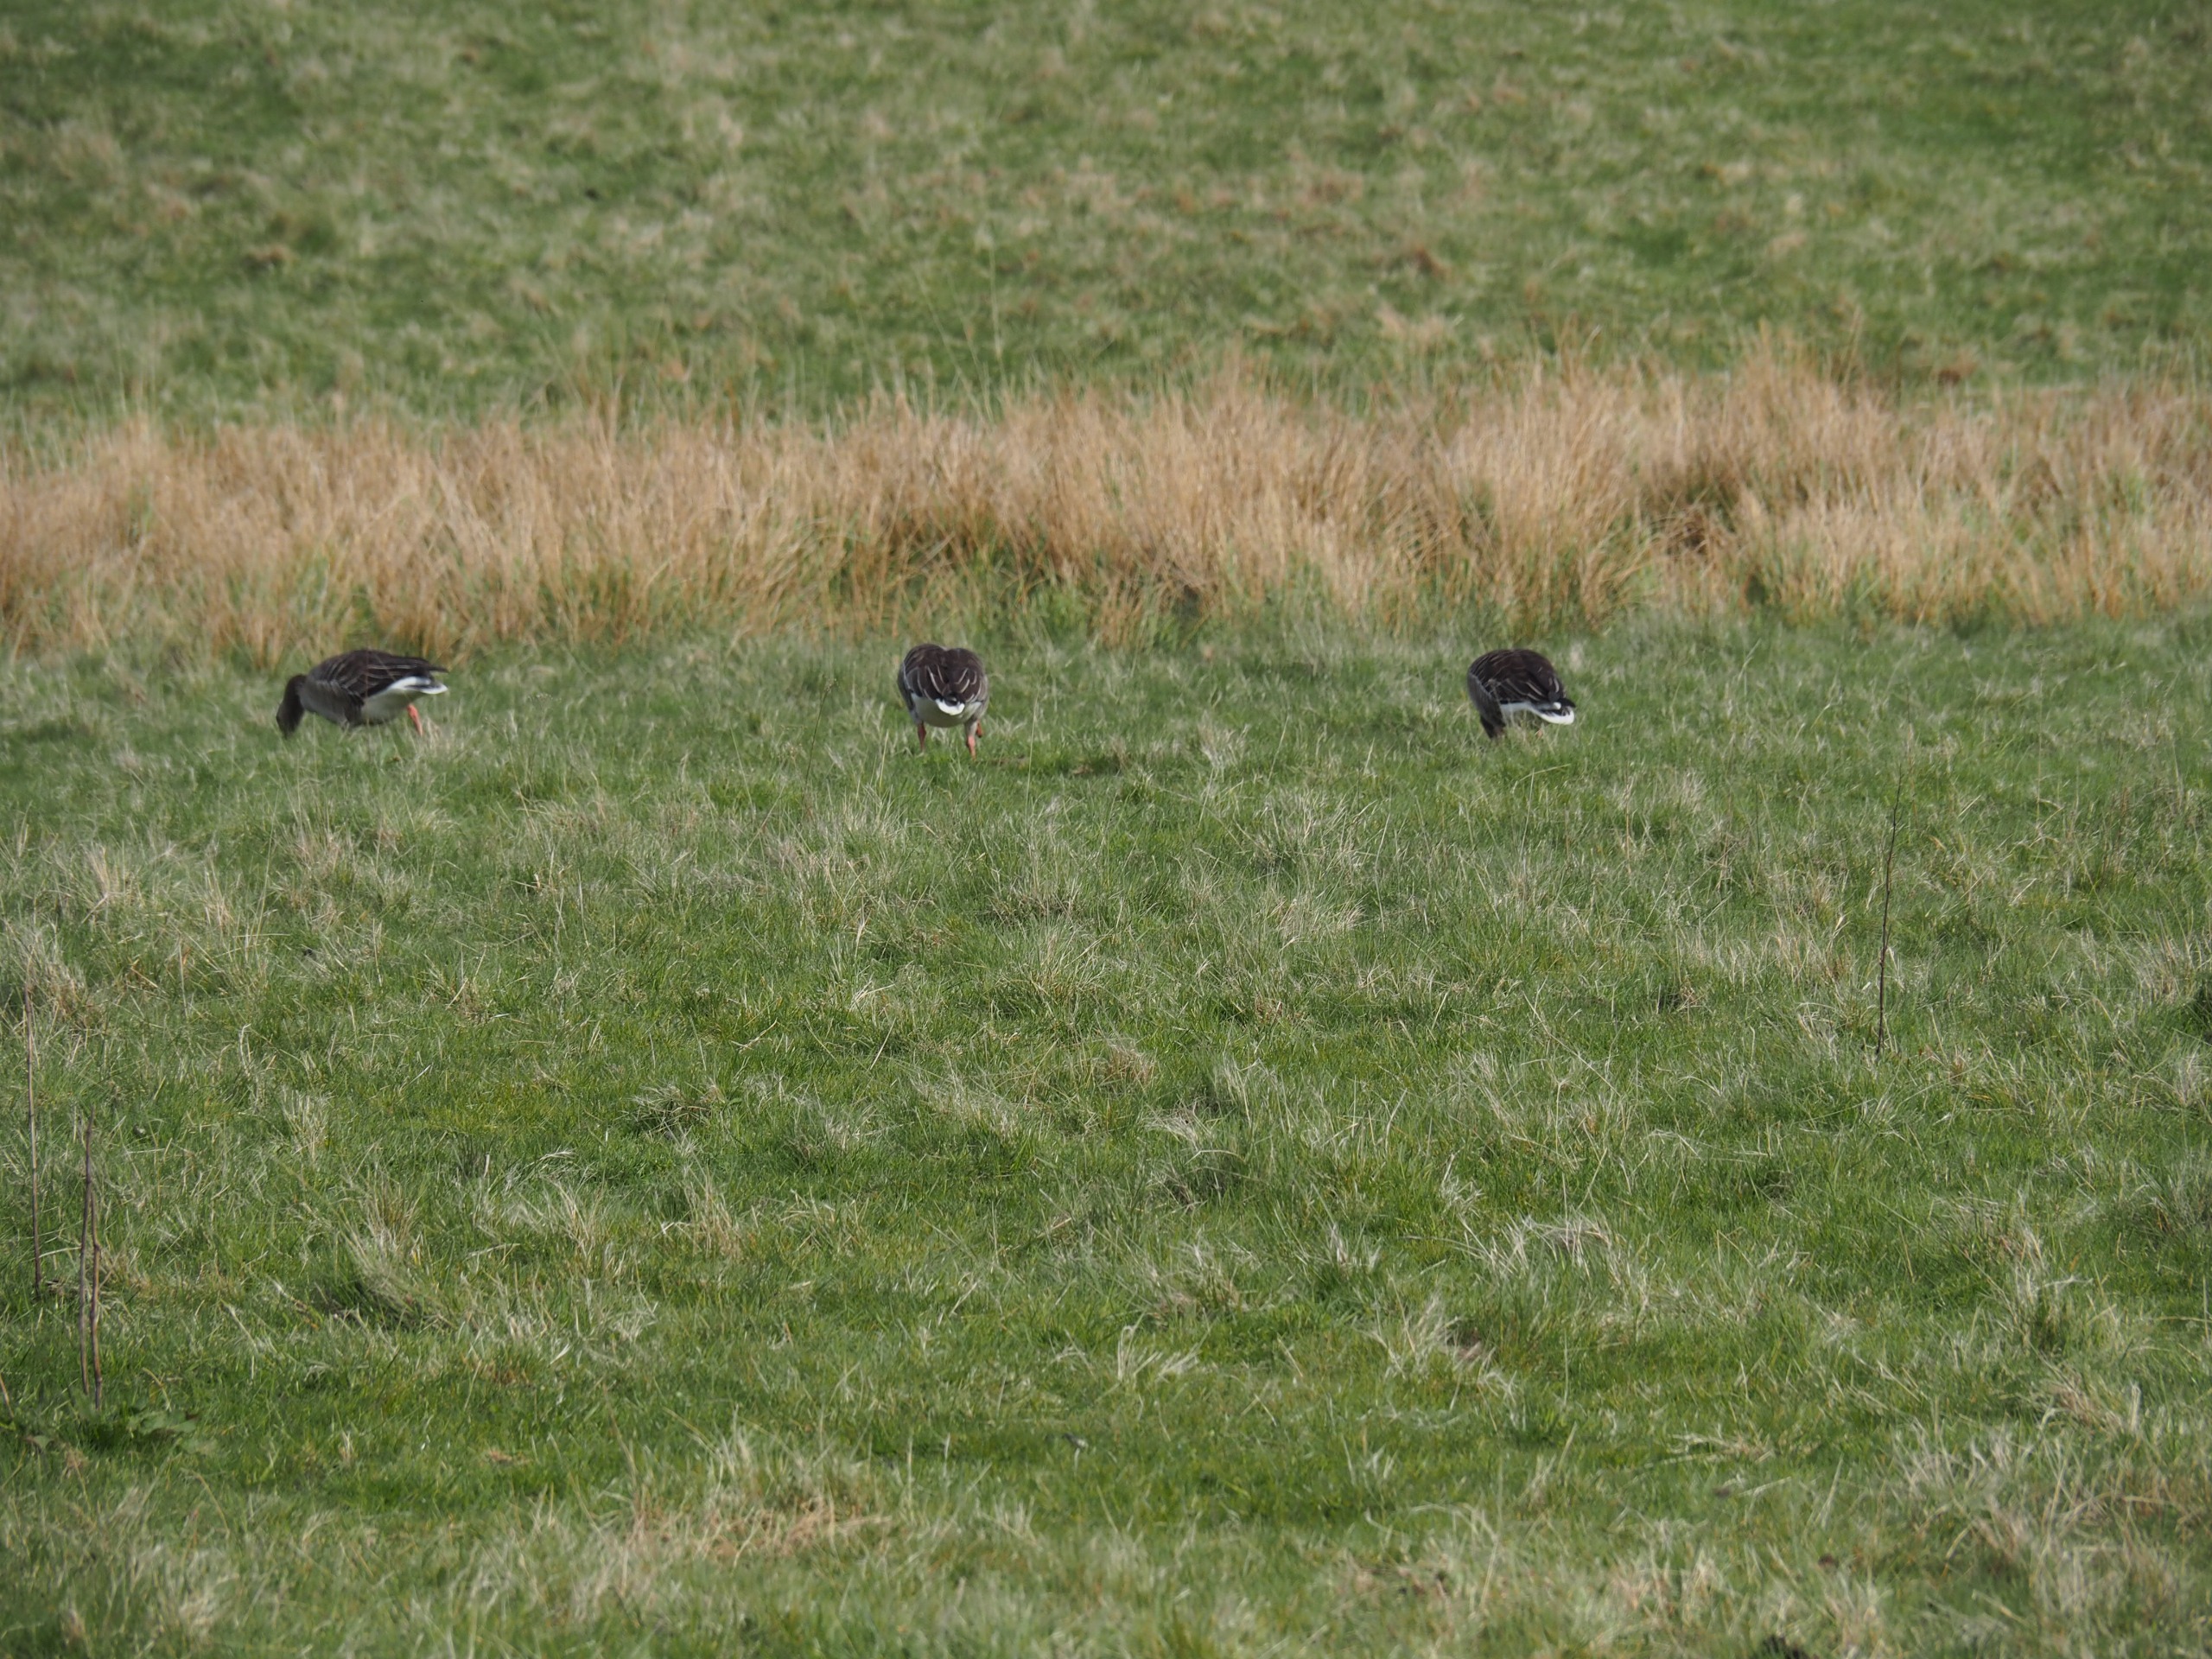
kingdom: Animalia
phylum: Chordata
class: Aves
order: Anseriformes
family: Anatidae
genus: Anser
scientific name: Anser anser
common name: Grågås
